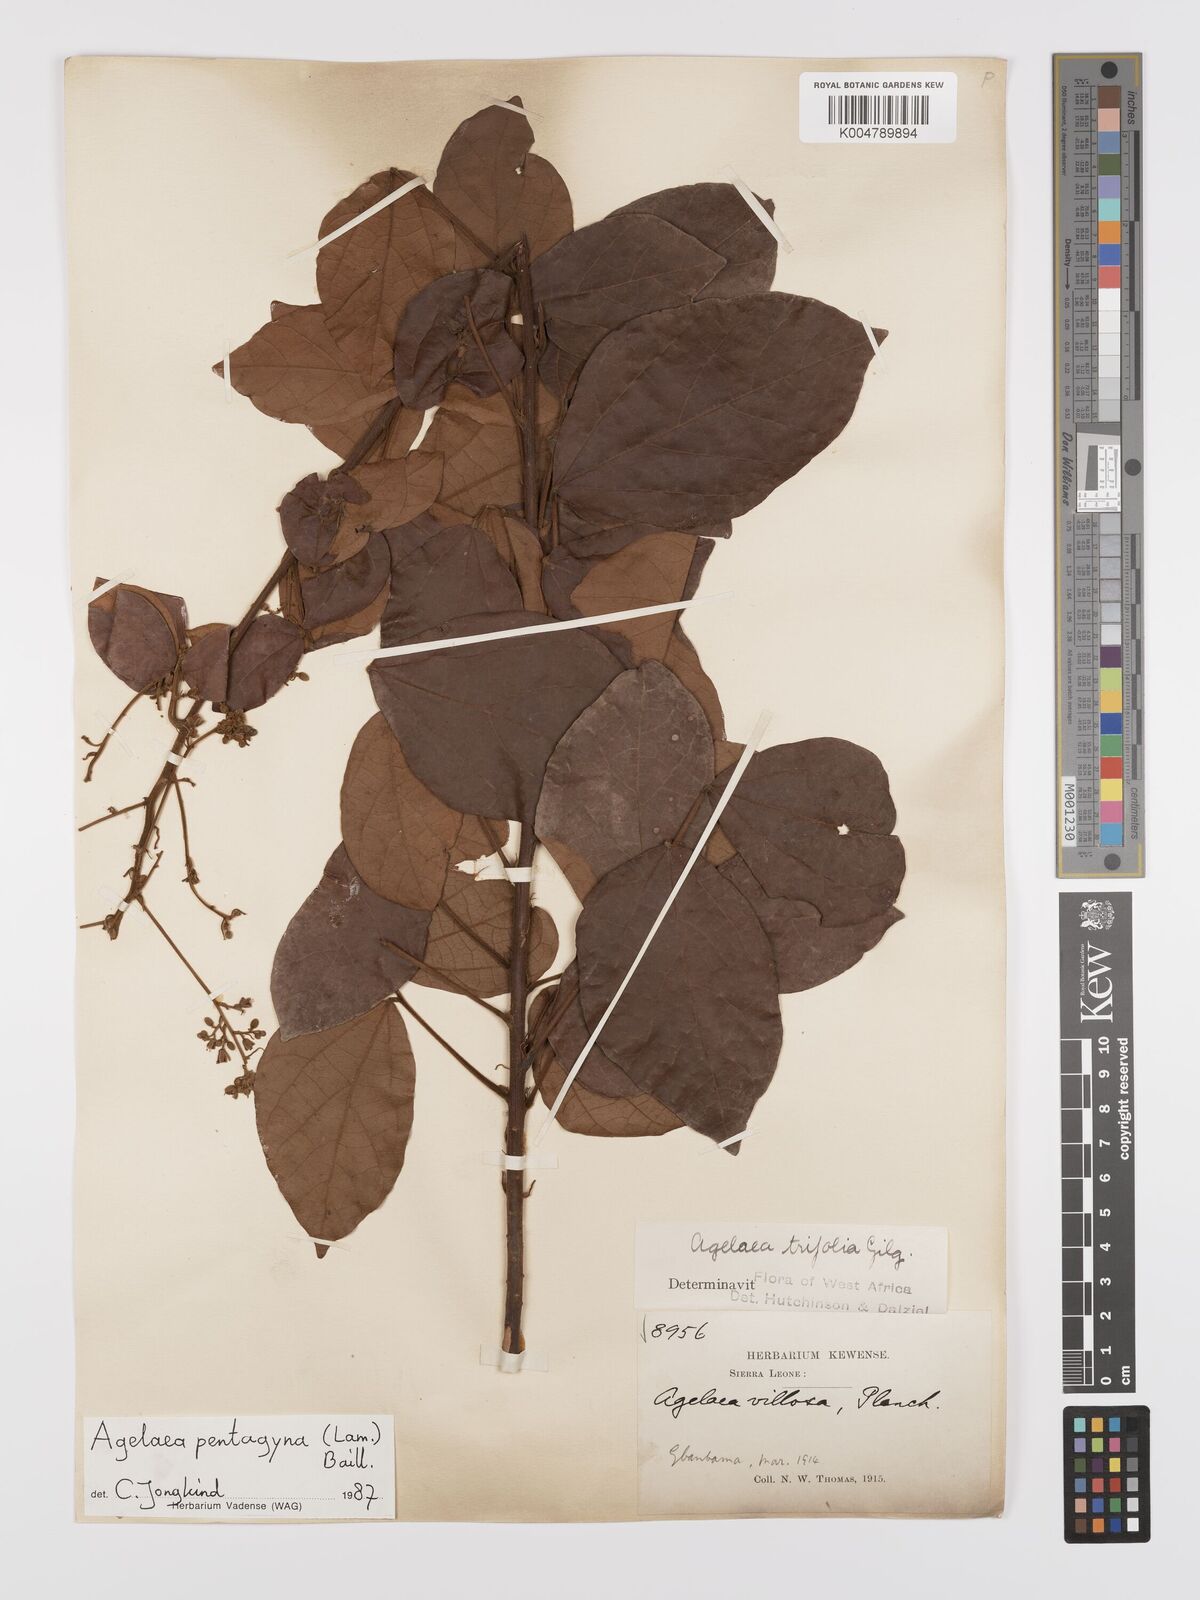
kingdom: Plantae
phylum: Tracheophyta
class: Magnoliopsida
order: Oxalidales
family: Connaraceae
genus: Agelaea
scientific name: Agelaea pentagyna
